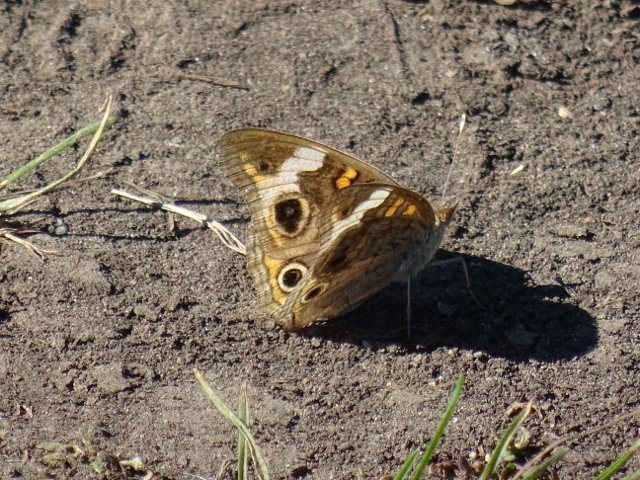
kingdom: Animalia
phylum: Arthropoda
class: Insecta
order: Lepidoptera
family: Nymphalidae
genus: Junonia
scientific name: Junonia coenia
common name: Common Buckeye
